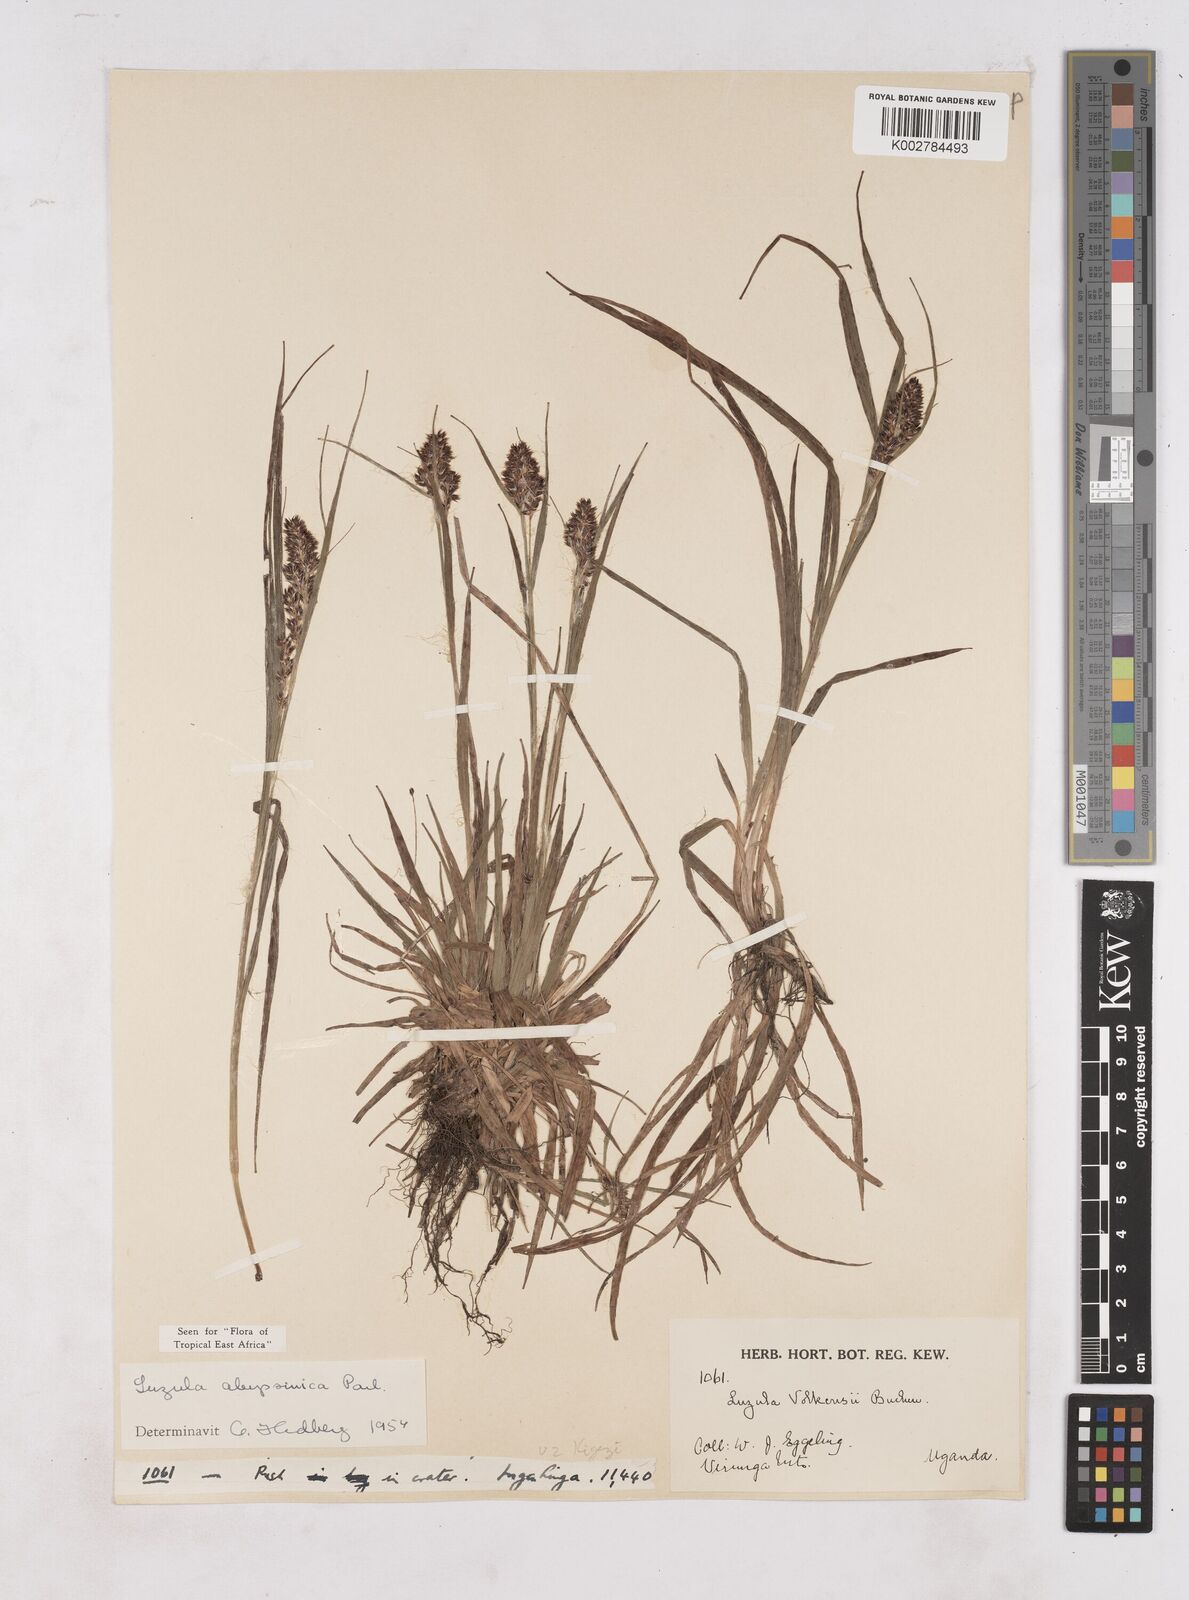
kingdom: Plantae
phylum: Tracheophyta
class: Liliopsida
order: Poales
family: Juncaceae
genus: Luzula
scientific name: Luzula abyssinica
